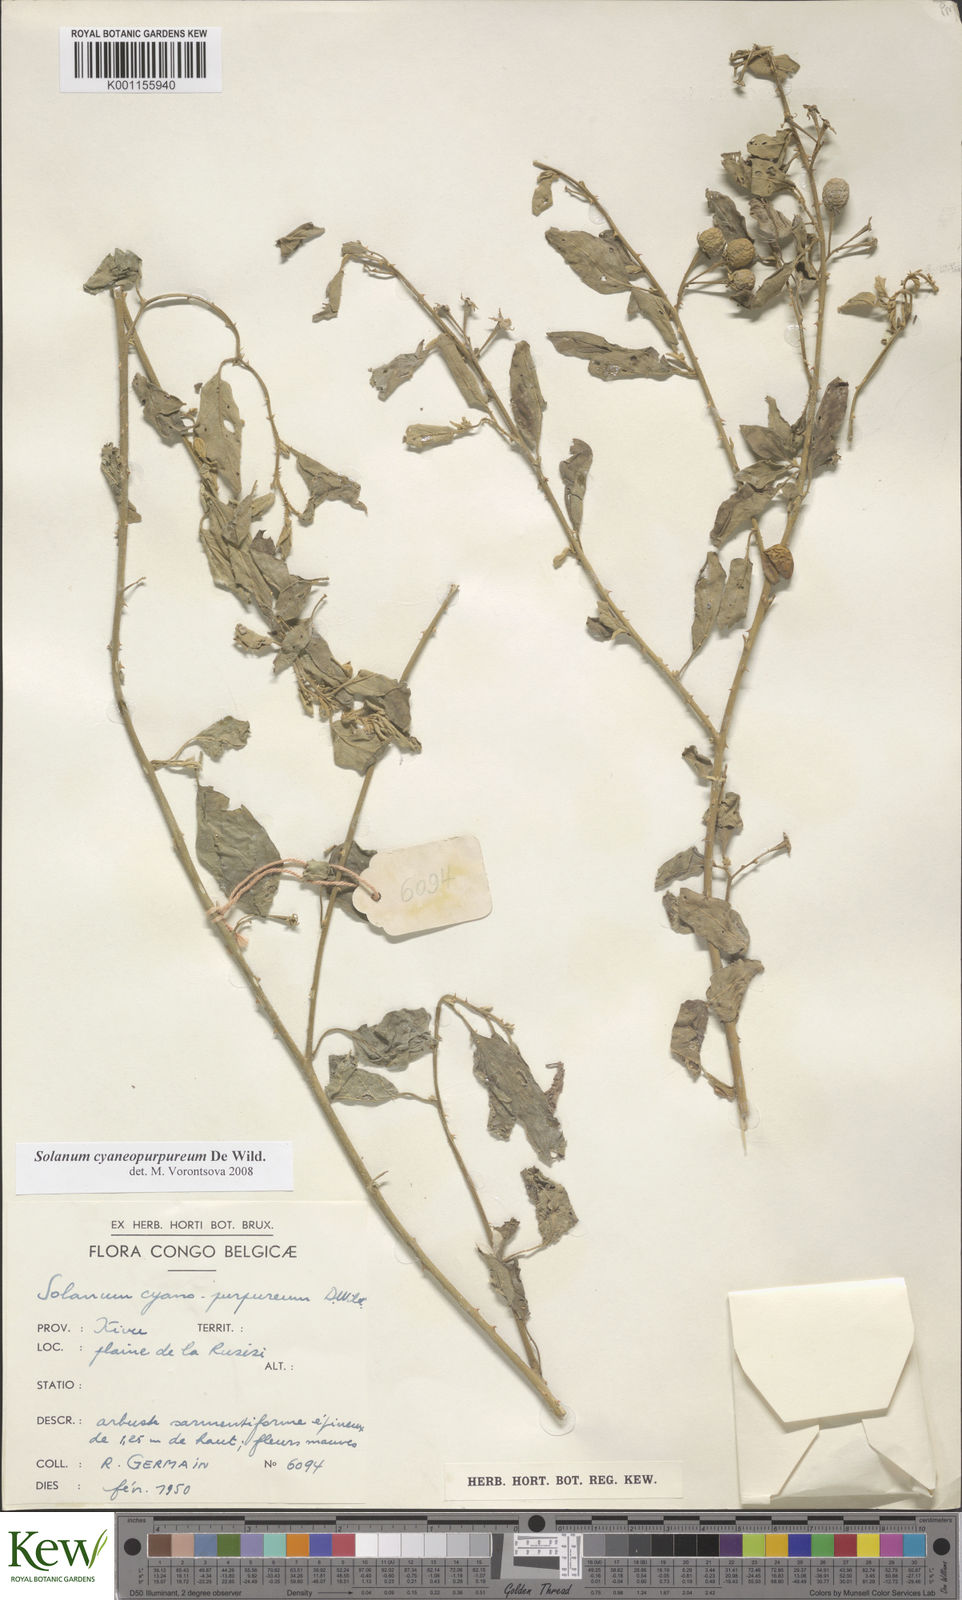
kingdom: Plantae
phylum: Tracheophyta
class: Magnoliopsida
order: Solanales
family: Solanaceae
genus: Solanum
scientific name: Solanum cyaneopurpureum
